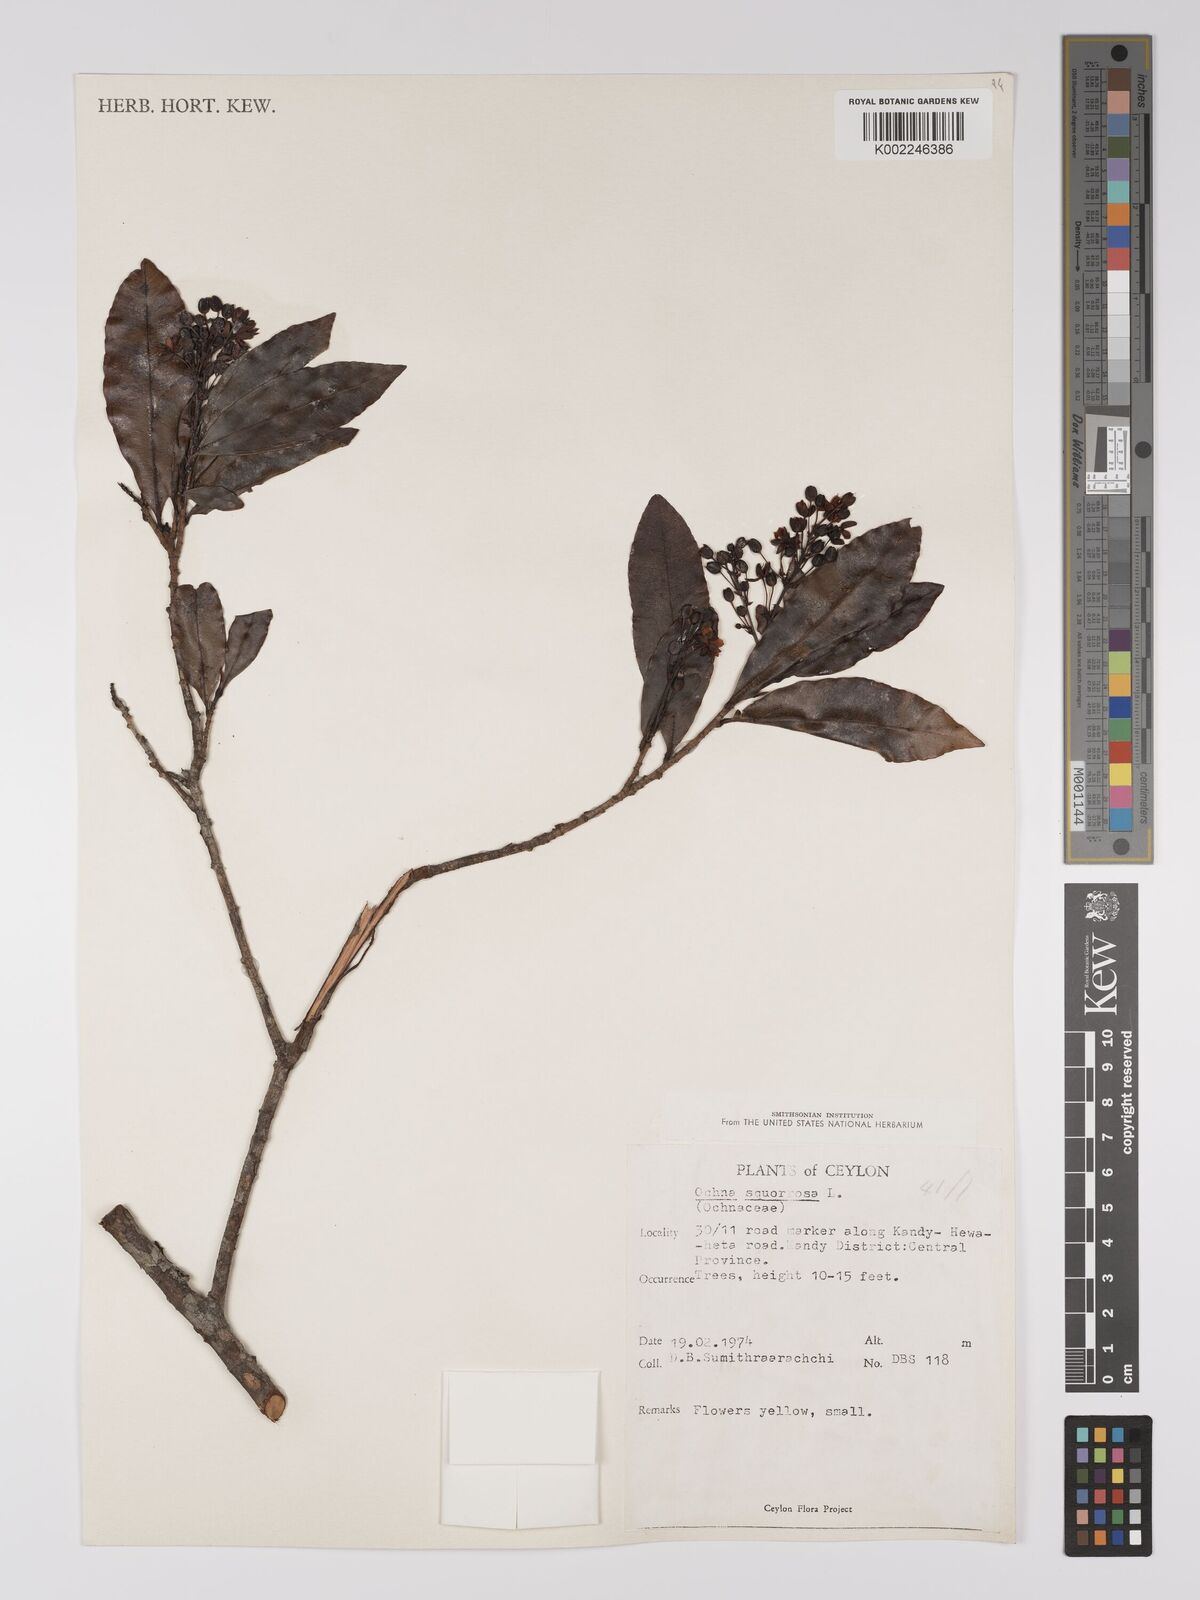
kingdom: Plantae
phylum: Tracheophyta
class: Magnoliopsida
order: Malpighiales
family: Ochnaceae
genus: Ochna
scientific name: Ochna
